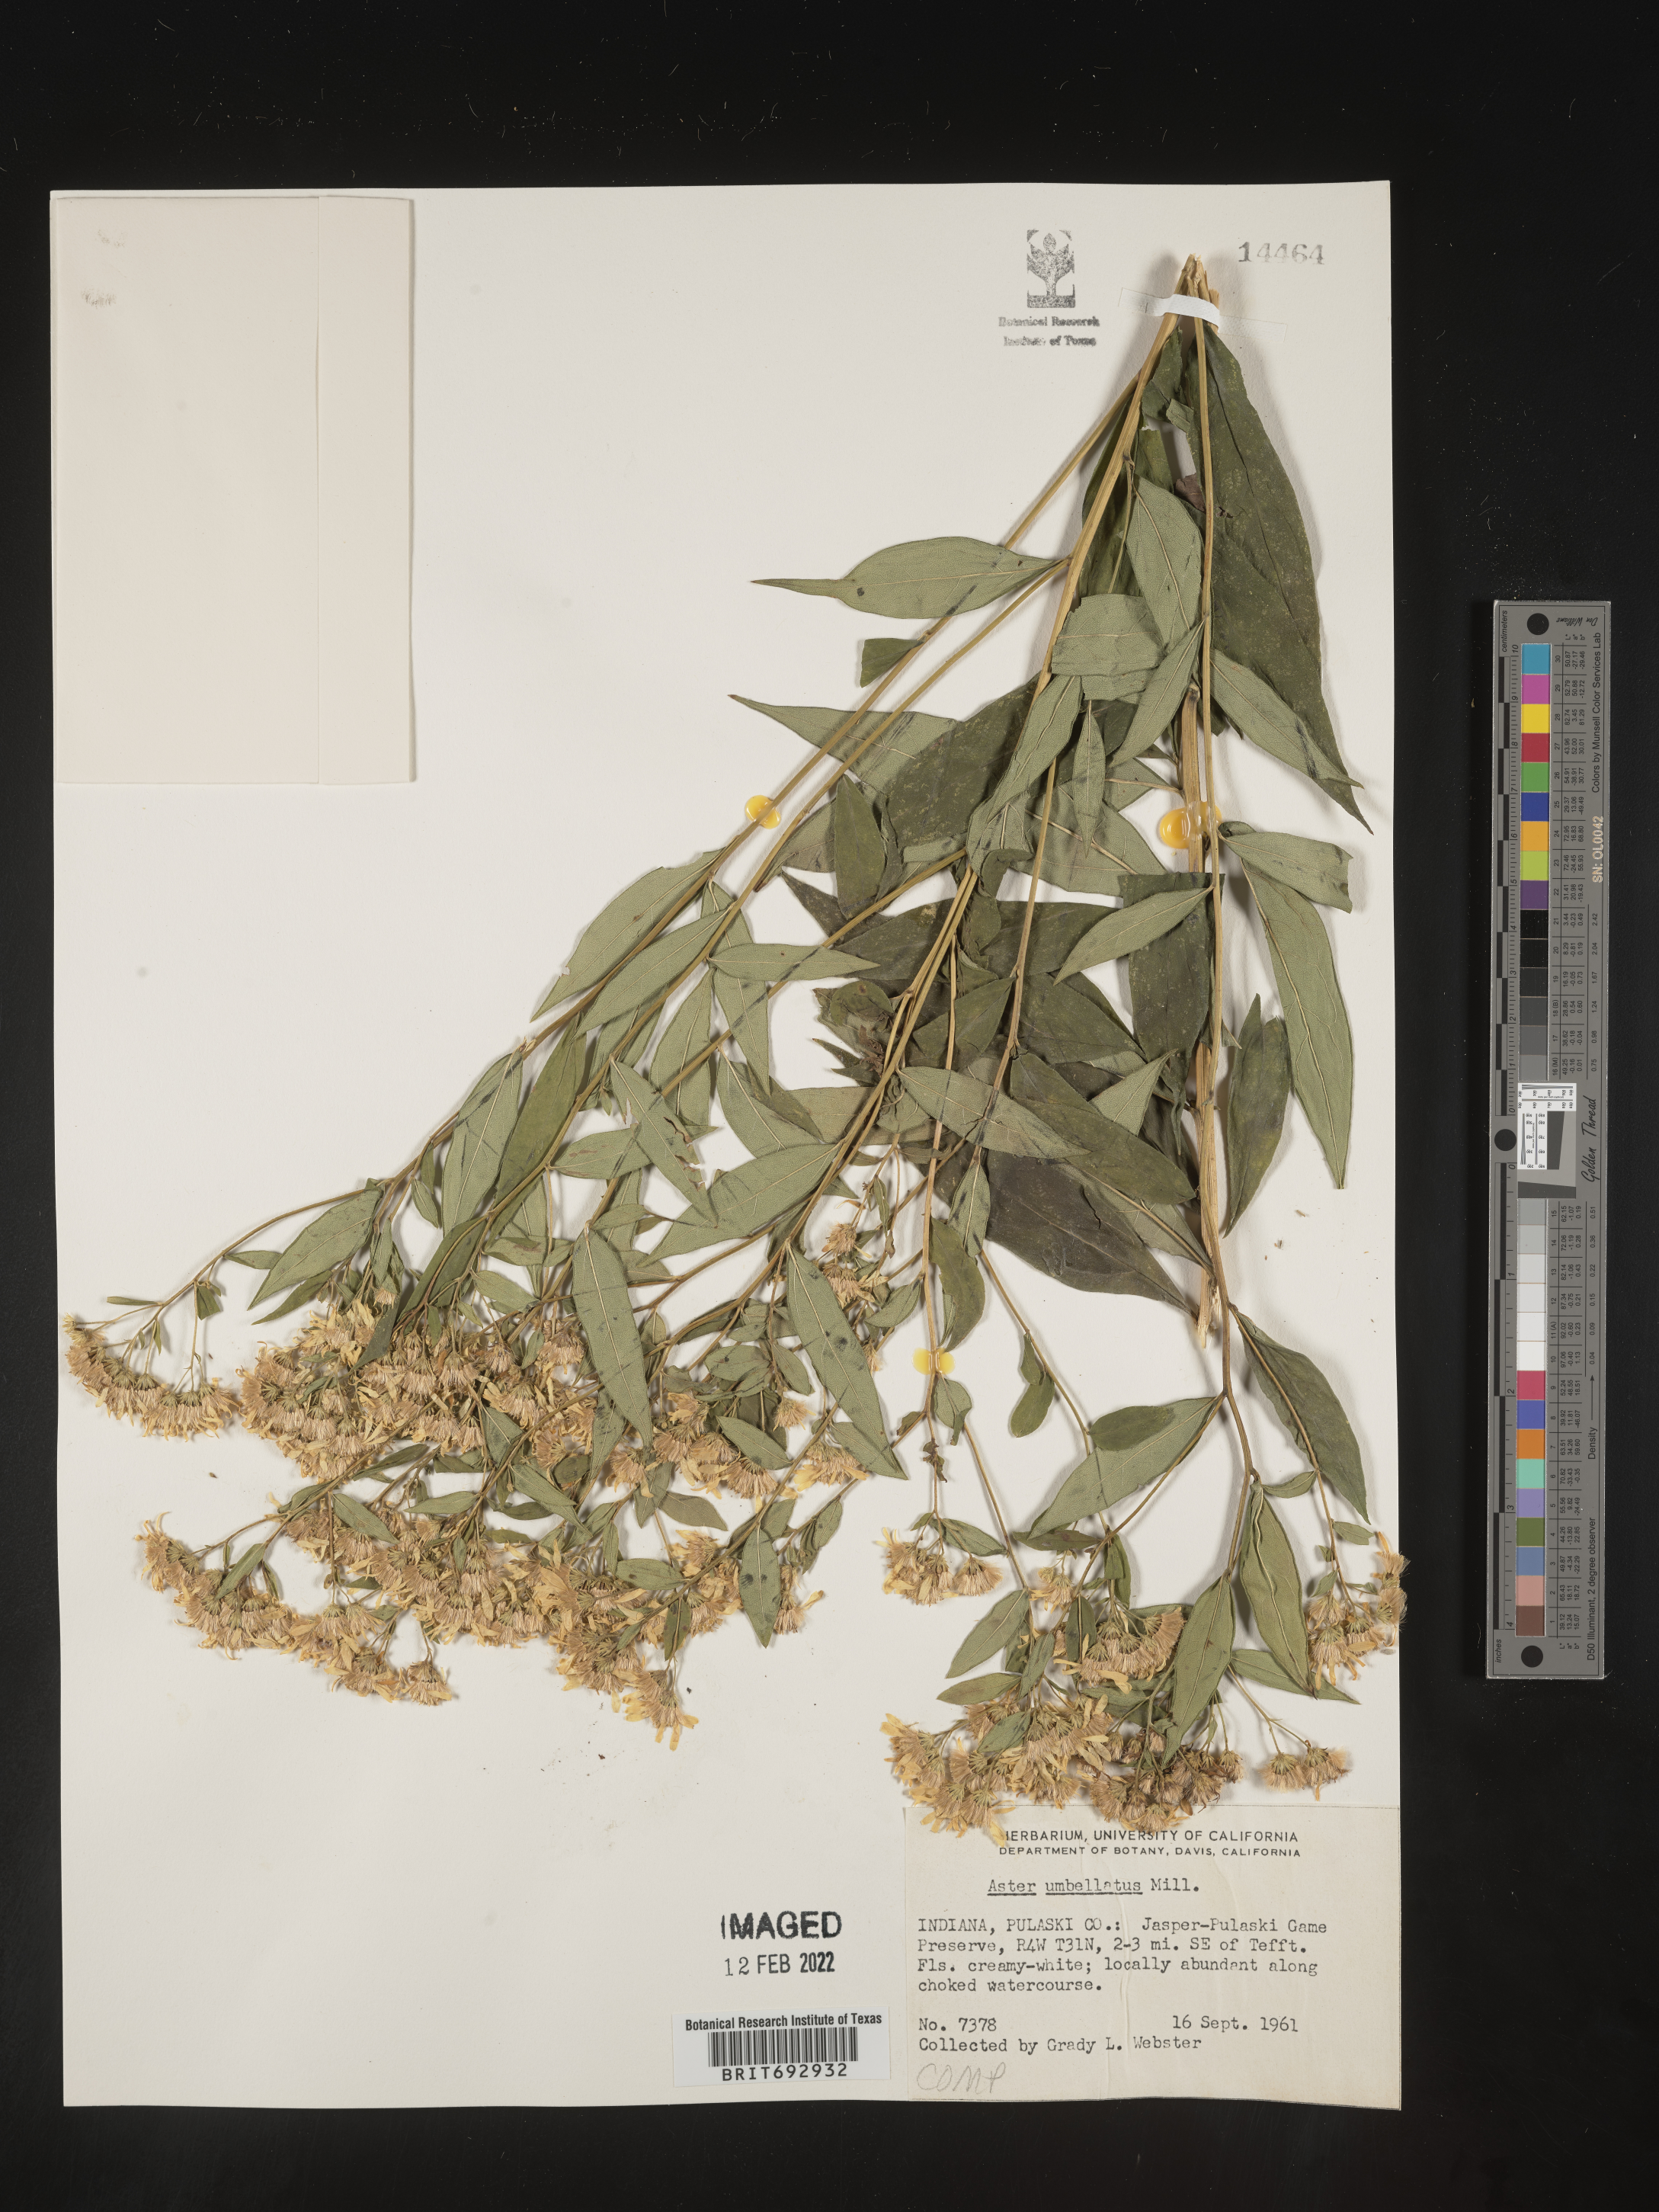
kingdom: Plantae
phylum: Tracheophyta
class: Magnoliopsida
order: Asterales
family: Asteraceae
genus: Doellingeria
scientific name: Doellingeria umbellata
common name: Flat-top white aster
